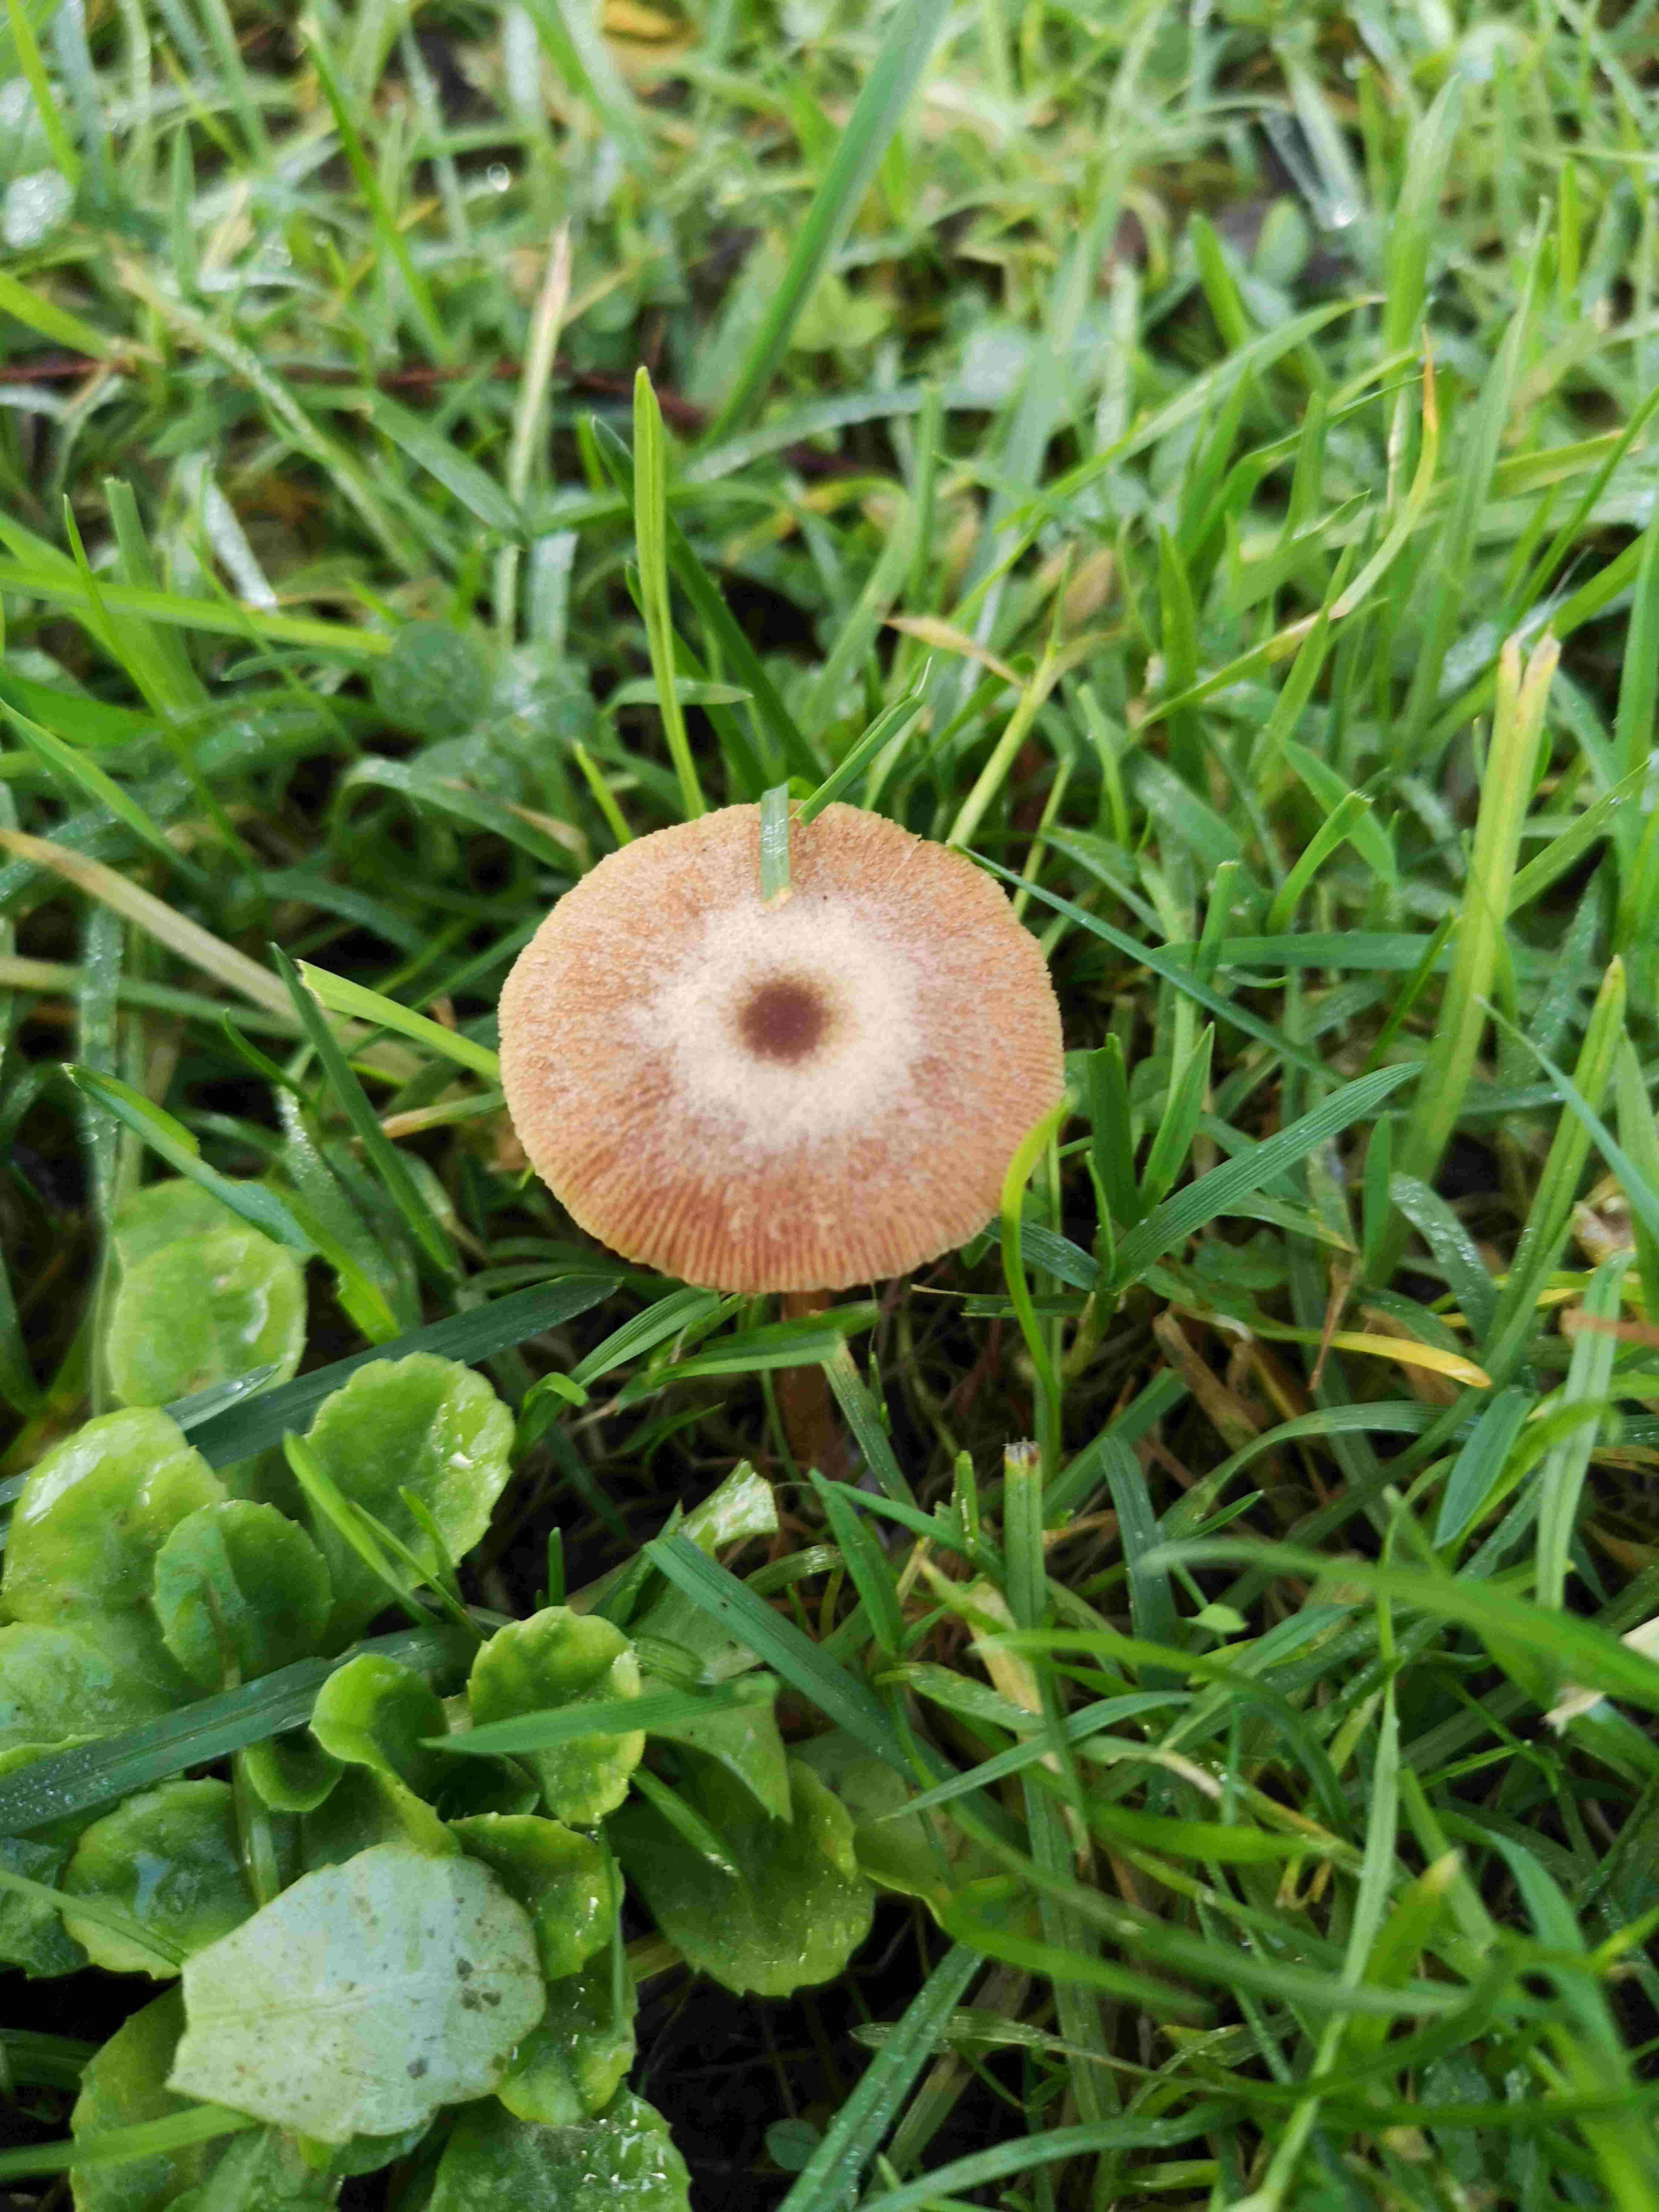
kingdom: Fungi
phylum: Basidiomycota
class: Agaricomycetes
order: Agaricales
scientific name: Agaricales
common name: champignonordenen
